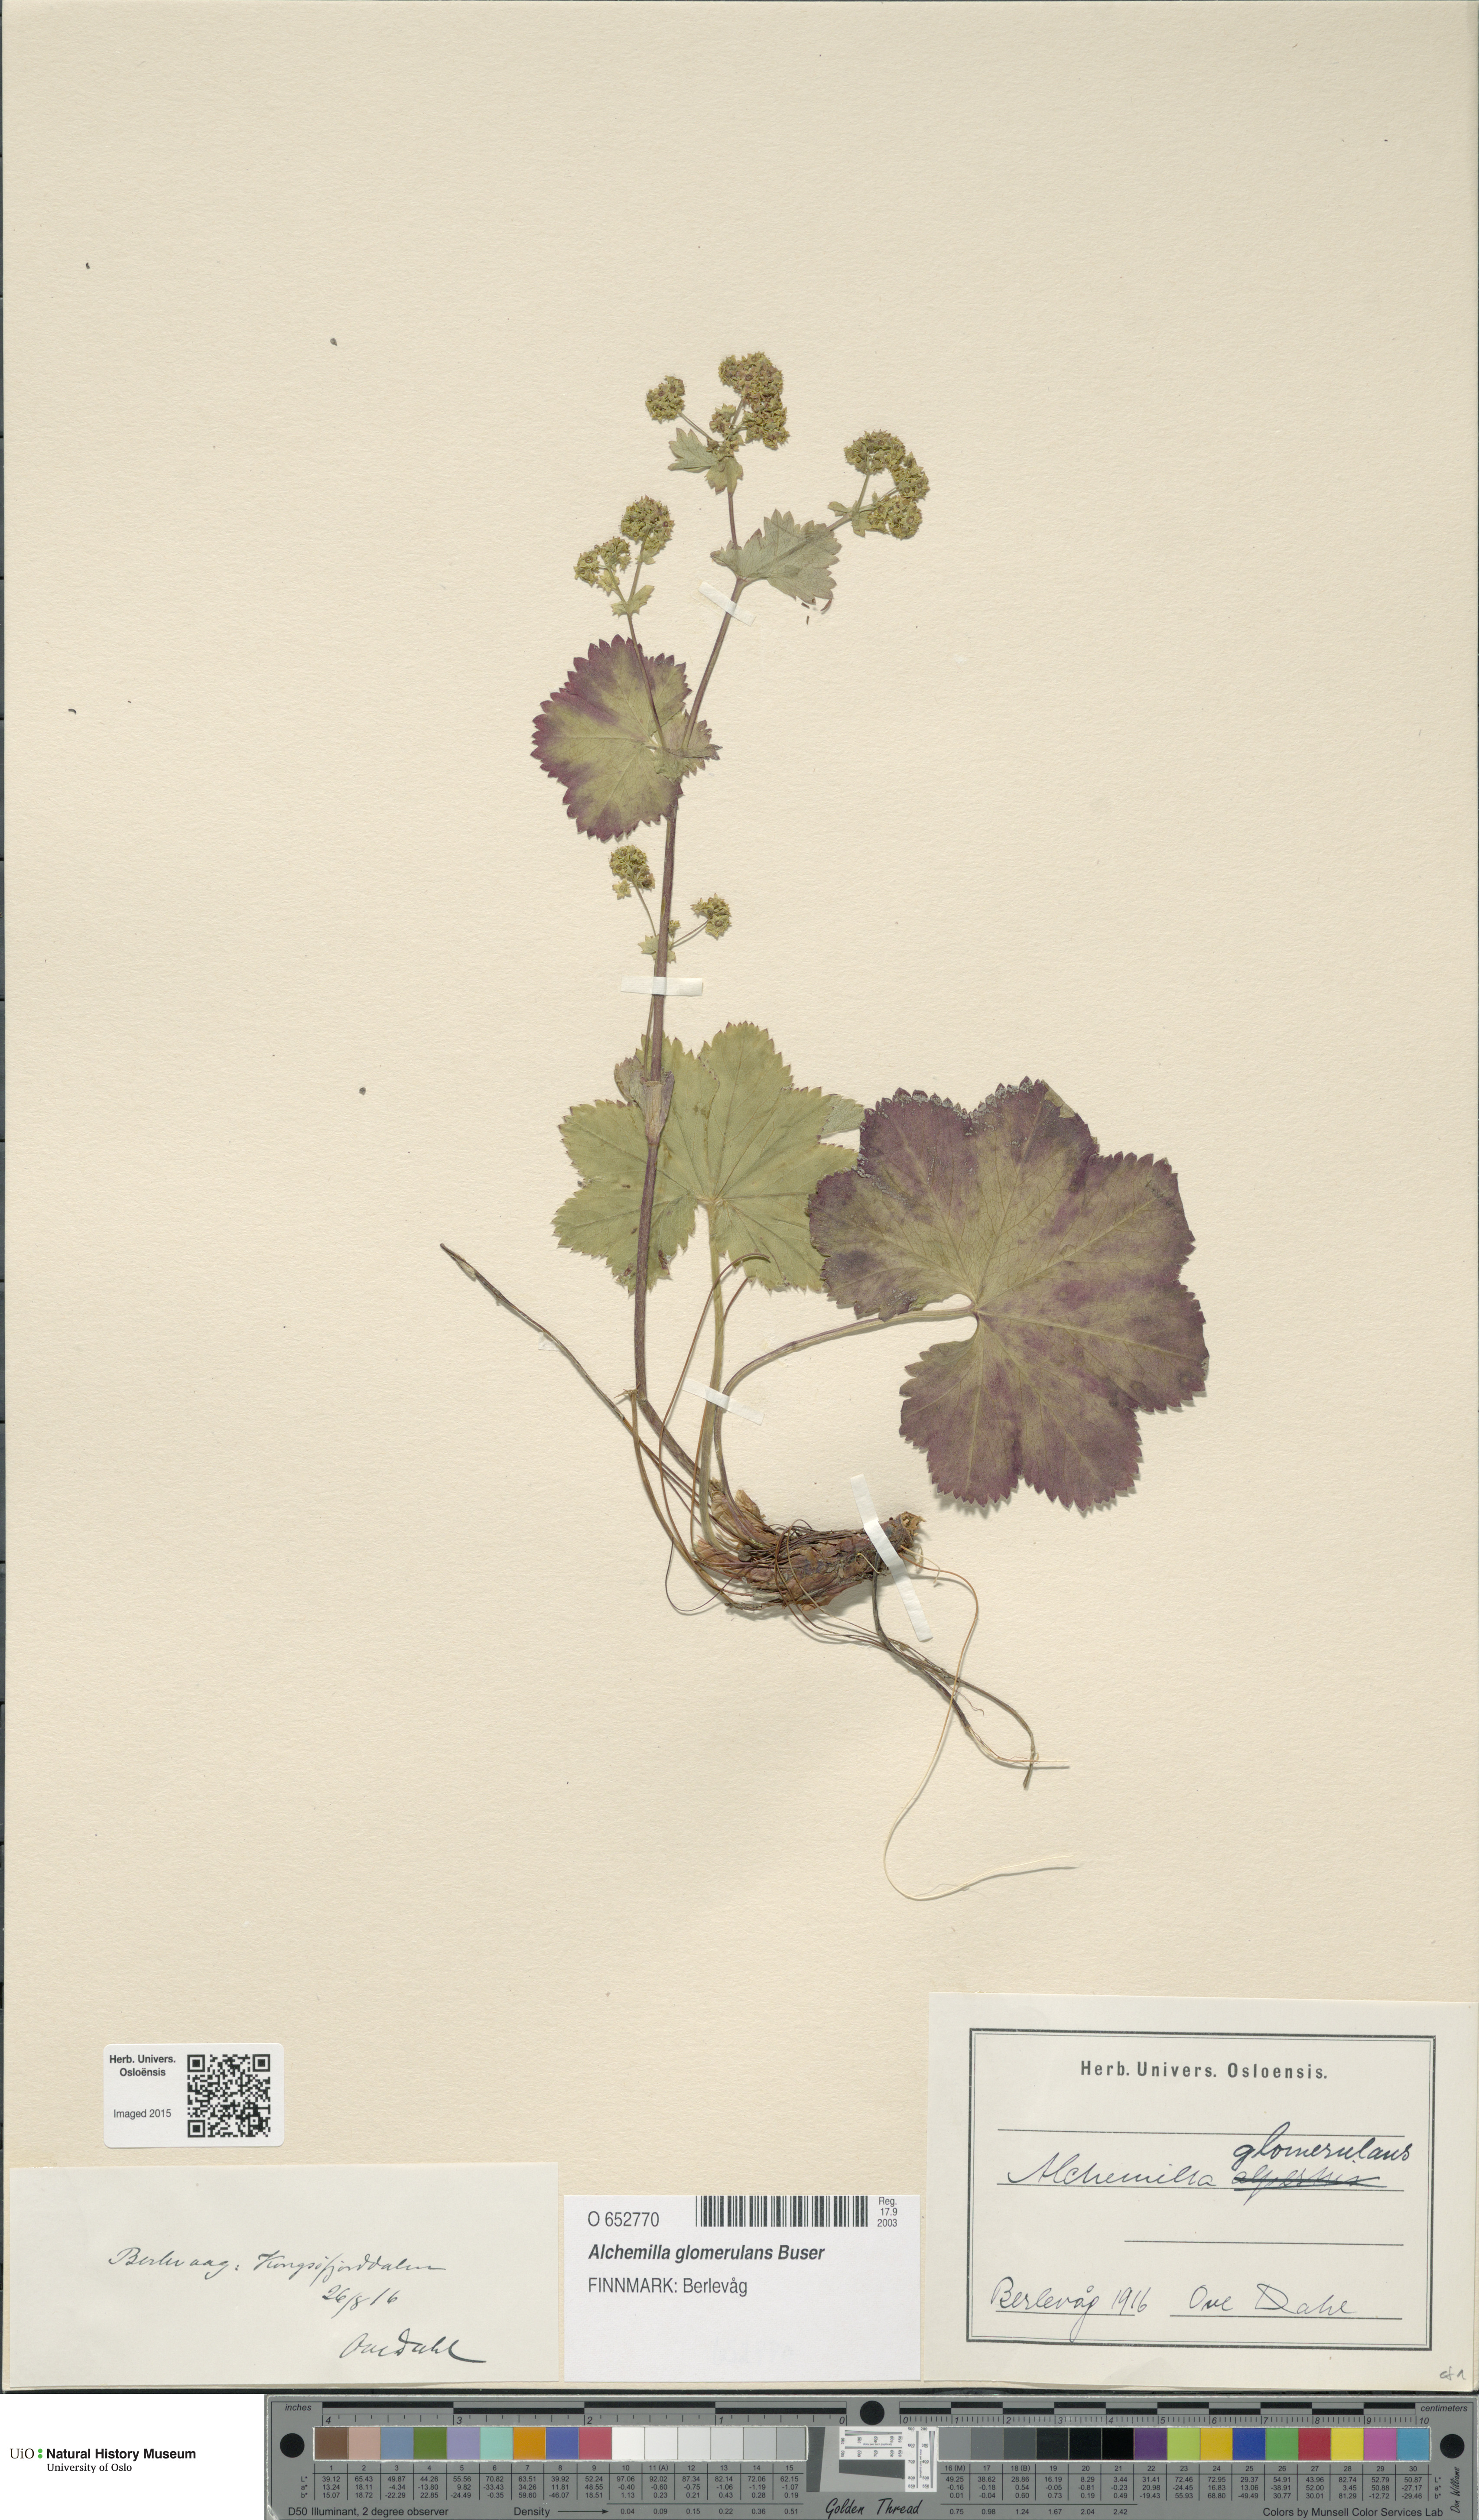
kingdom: Plantae
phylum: Tracheophyta
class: Magnoliopsida
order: Rosales
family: Rosaceae
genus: Alchemilla
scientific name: Alchemilla glomerulans
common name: Clustered lady's mantle
